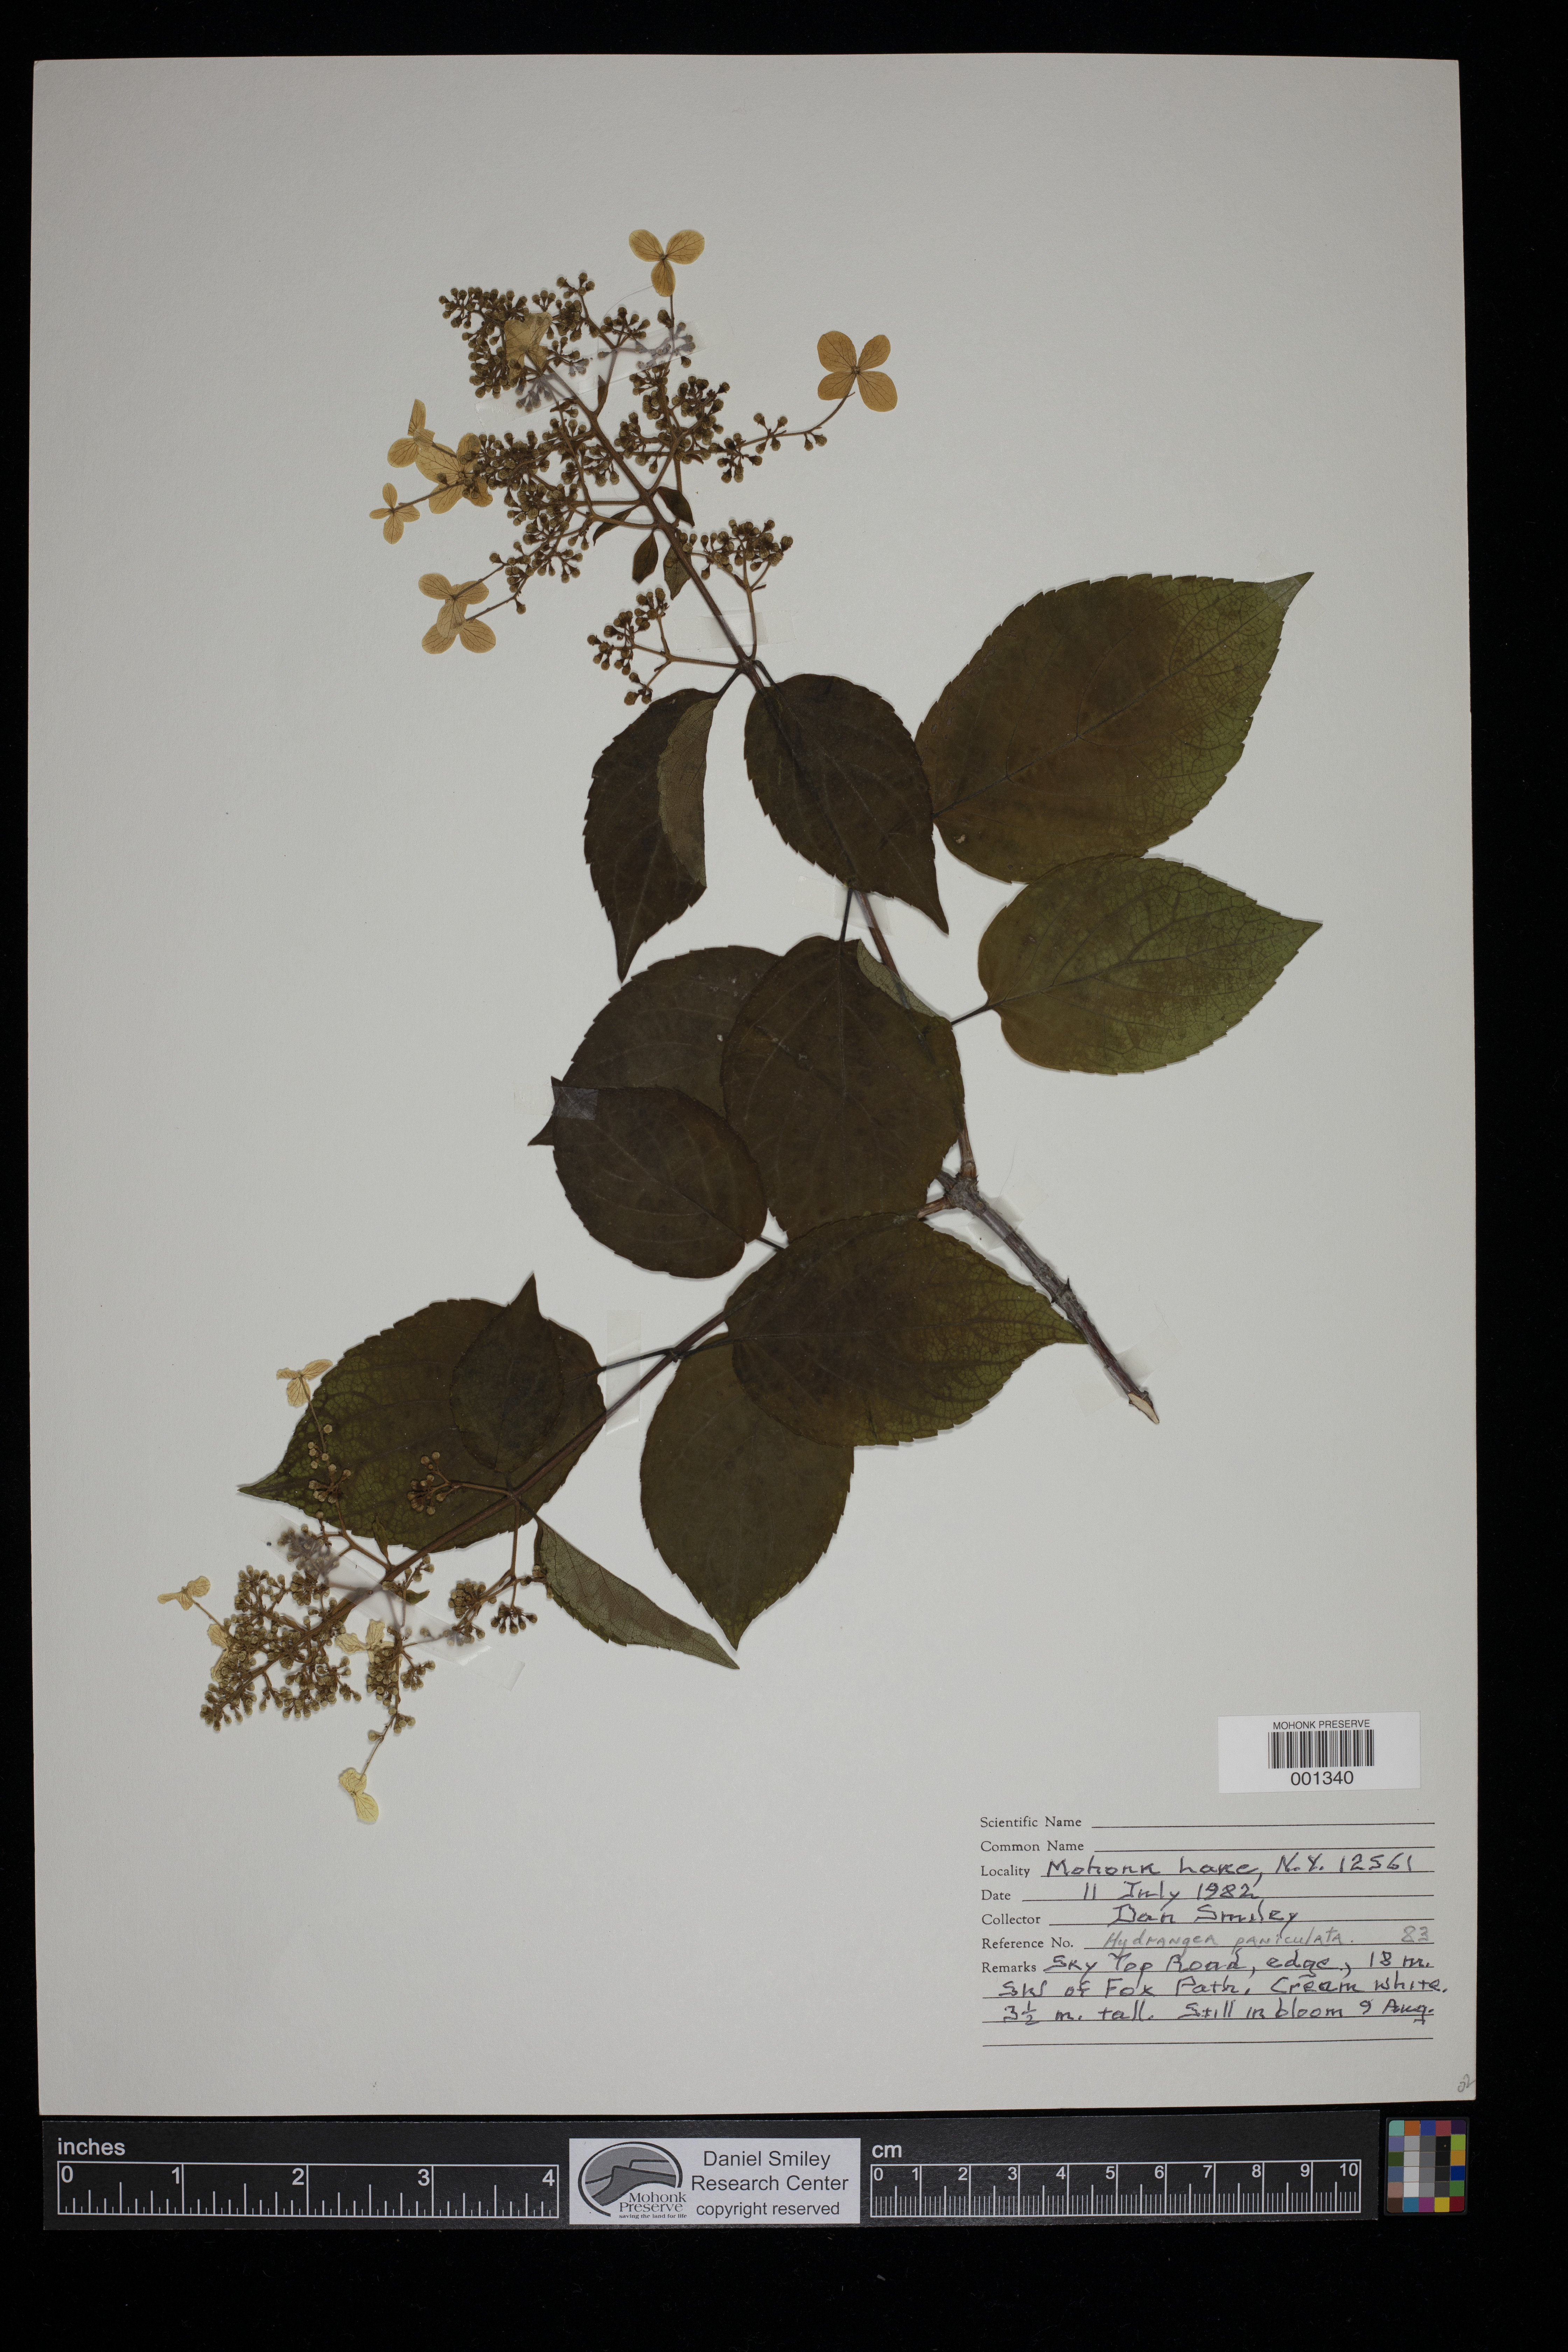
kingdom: Plantae
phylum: Tracheophyta
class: Magnoliopsida
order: Cornales
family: Hydrangeaceae
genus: Hydrangea
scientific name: Hydrangea paniculata
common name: Panicled hydrangea
